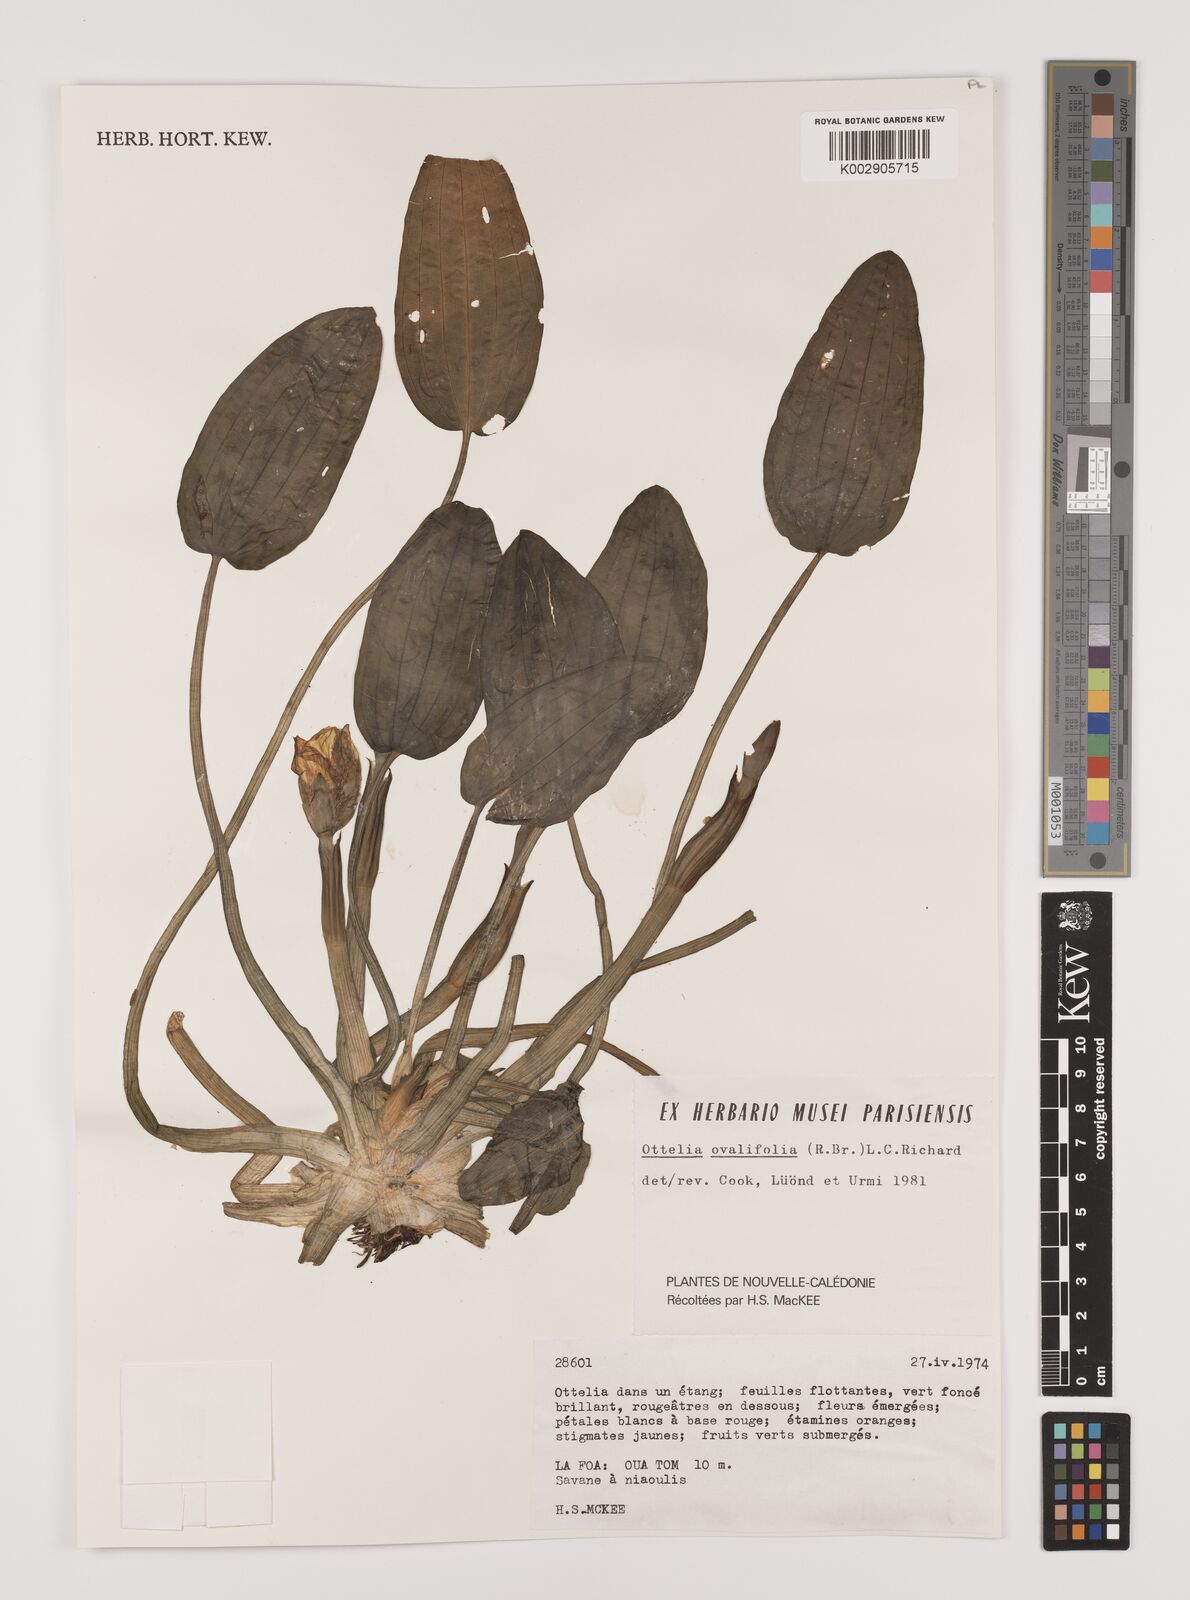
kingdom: Plantae
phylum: Tracheophyta
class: Liliopsida
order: Alismatales
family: Hydrocharitaceae
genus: Ottelia
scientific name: Ottelia ovalifolia
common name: Swamp-lily
